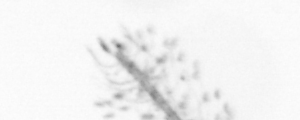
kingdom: Chromista
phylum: Ochrophyta
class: Bacillariophyceae
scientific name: Bacillariophyceae
